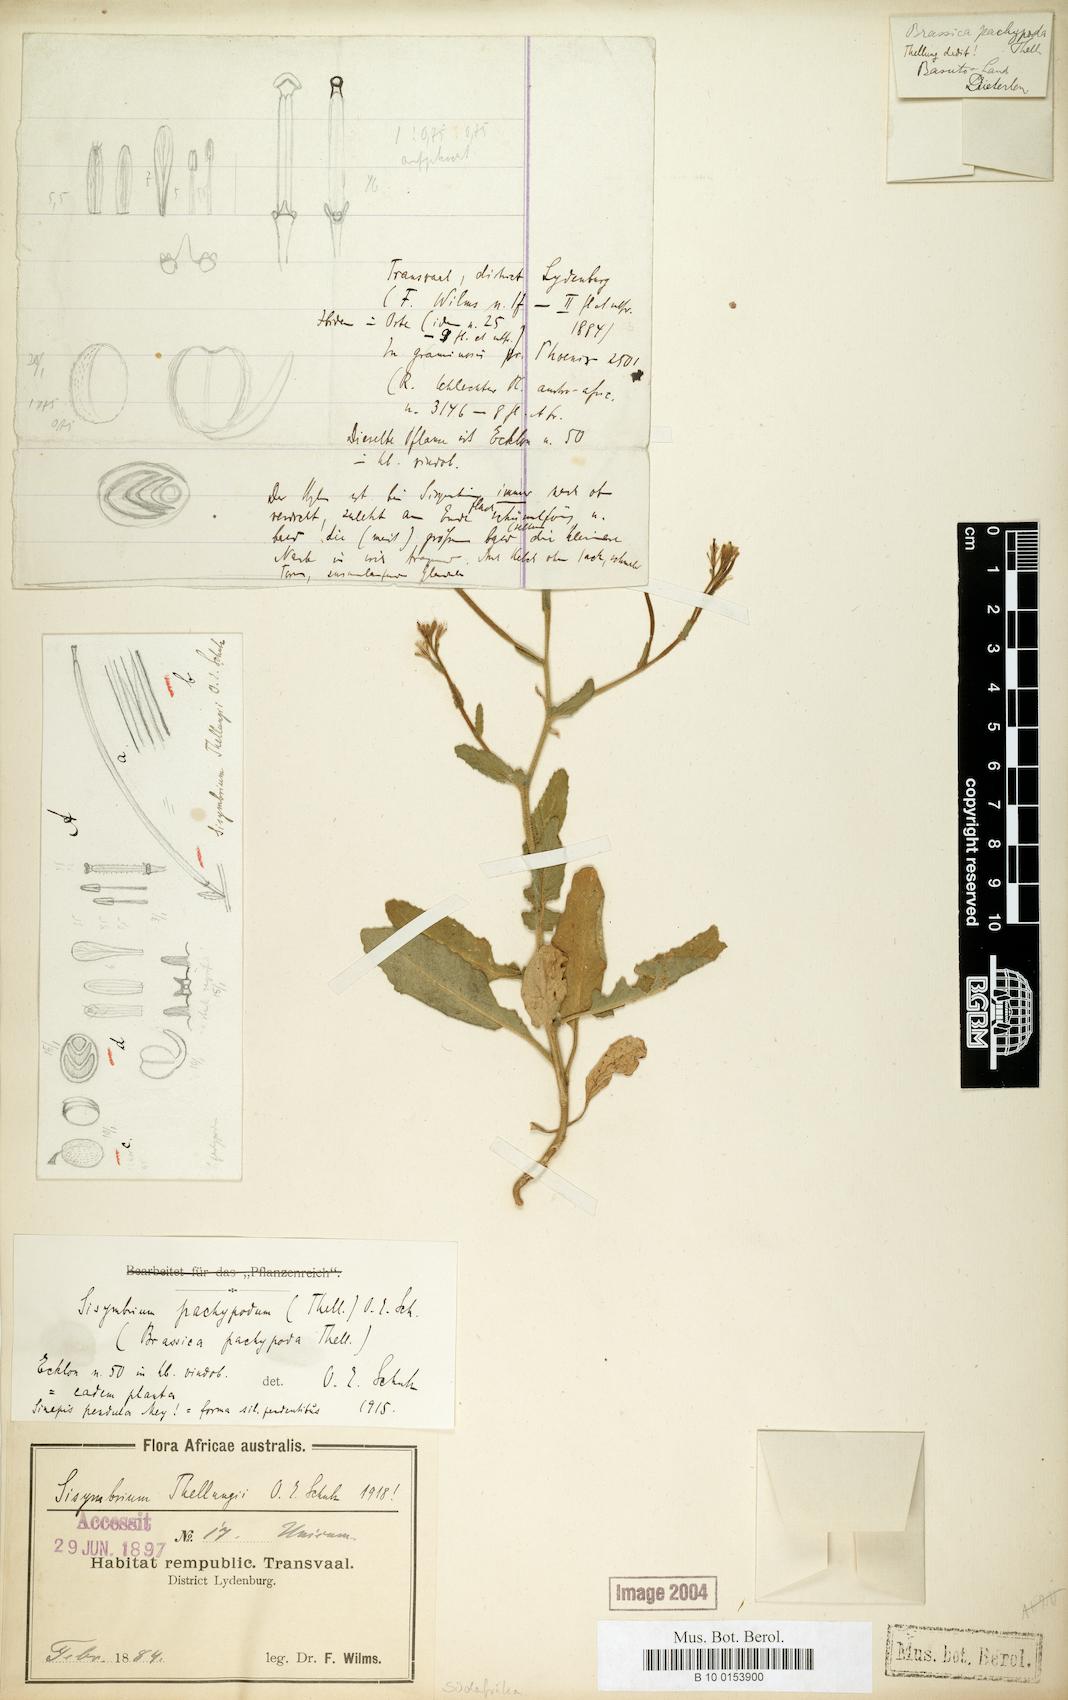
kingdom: Plantae
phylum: Tracheophyta
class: Magnoliopsida
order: Brassicales
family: Brassicaceae
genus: Erucastrum
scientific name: Erucastrum austroafricanum
